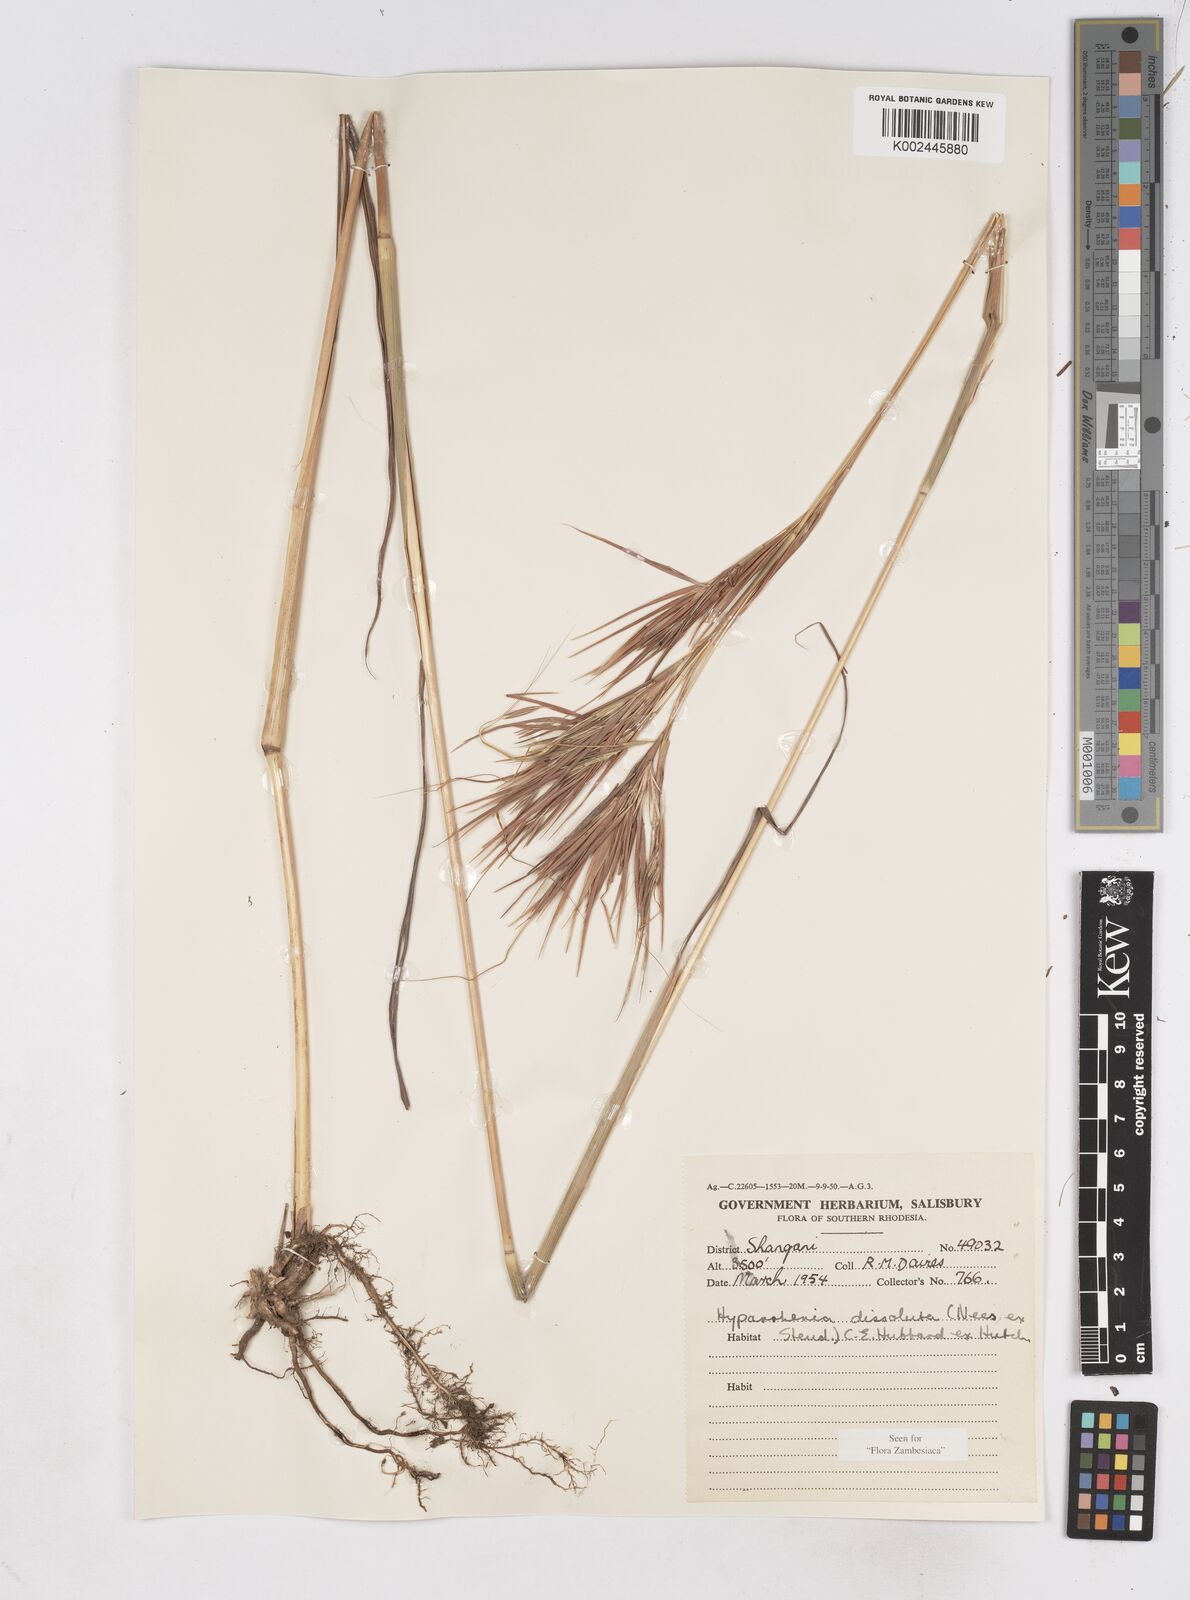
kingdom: Plantae
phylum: Tracheophyta
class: Liliopsida
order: Poales
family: Poaceae
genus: Hyperthelia
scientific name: Hyperthelia dissoluta
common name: Yellow thatching grass
